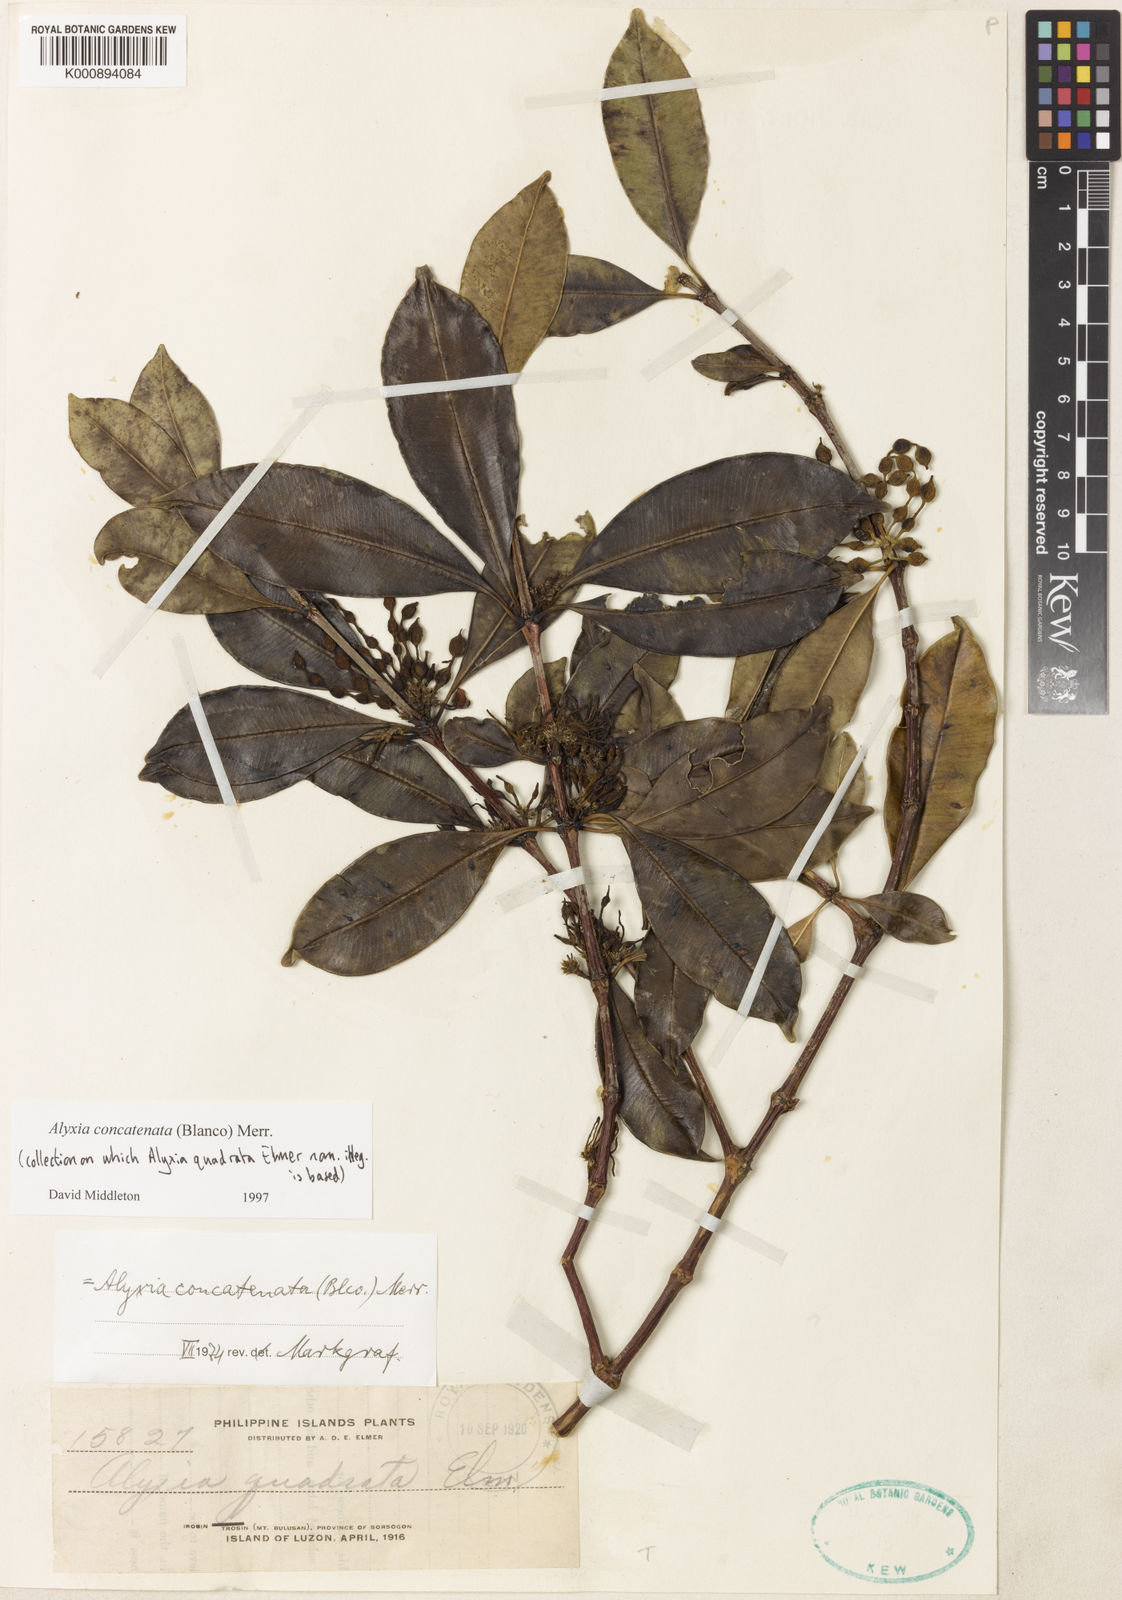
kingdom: Plantae
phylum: Tracheophyta
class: Magnoliopsida
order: Gentianales
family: Apocynaceae
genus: Alyxia
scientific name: Alyxia concatenata
